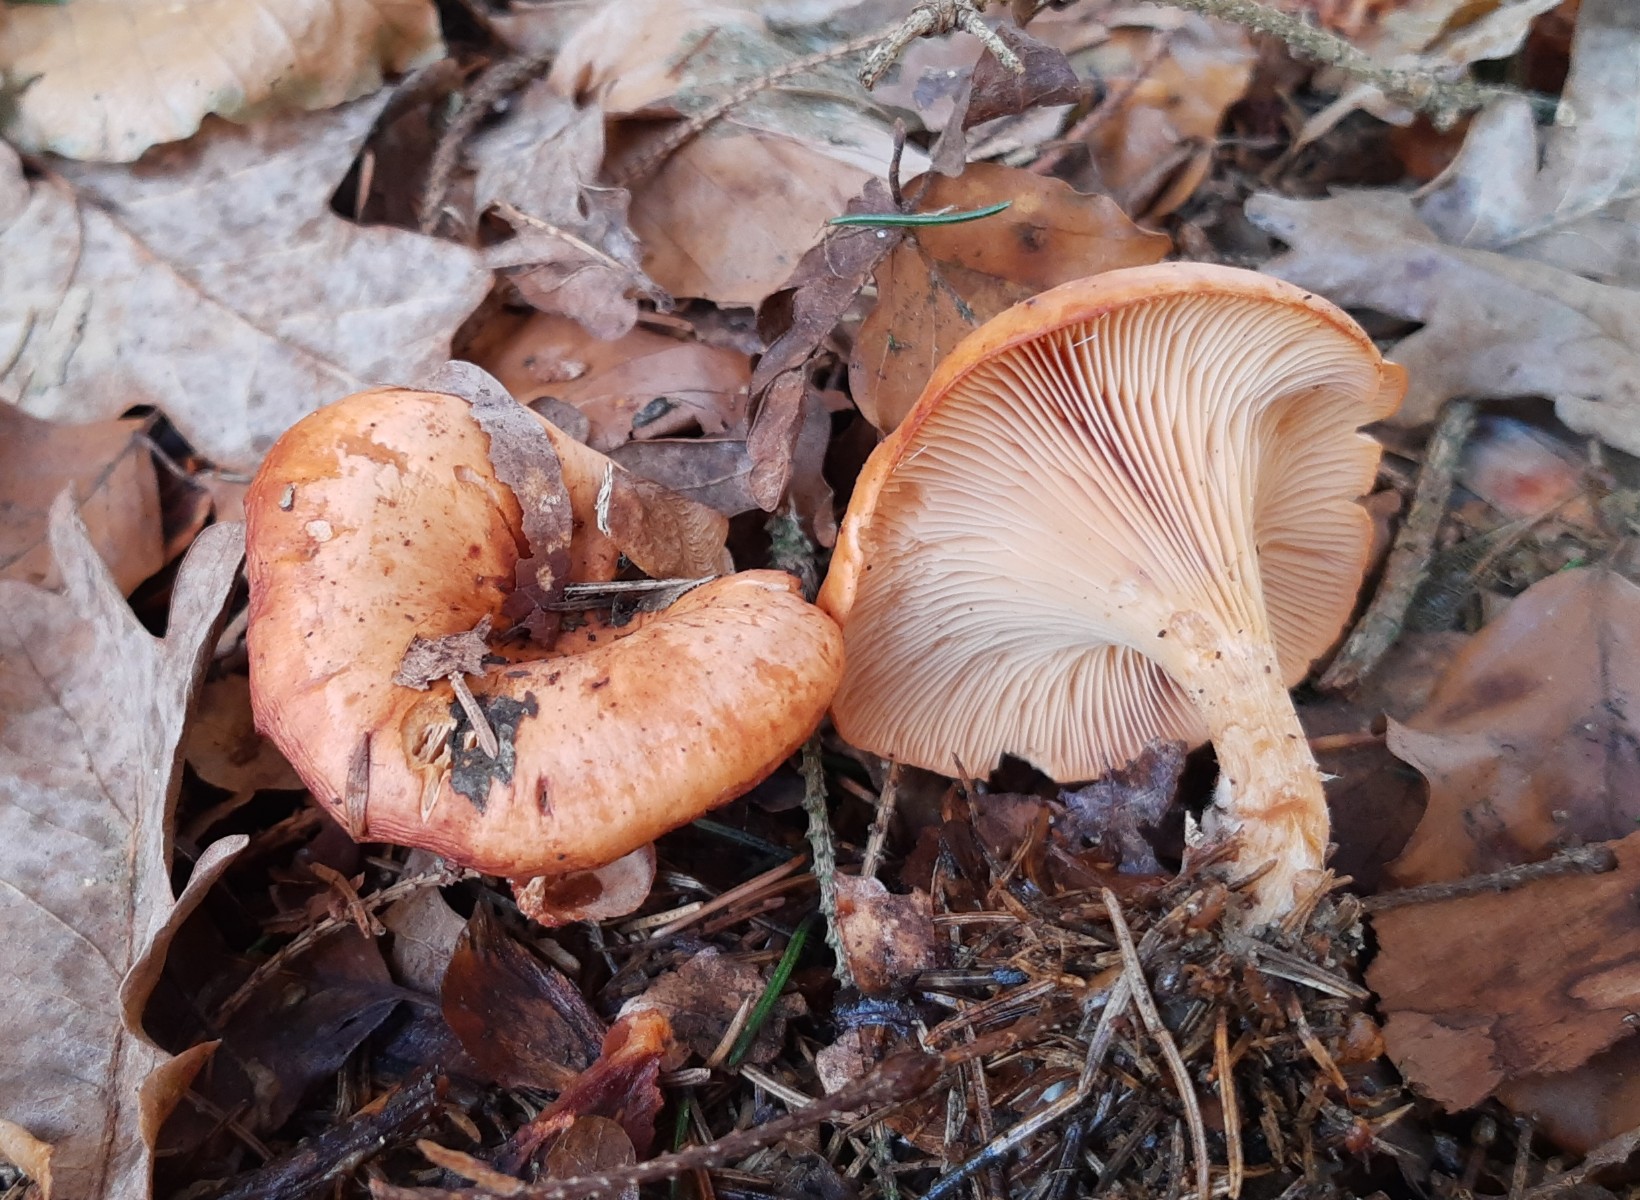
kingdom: Fungi
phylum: Basidiomycota
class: Agaricomycetes
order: Agaricales
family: Tricholomataceae
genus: Paralepista
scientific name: Paralepista flaccida
